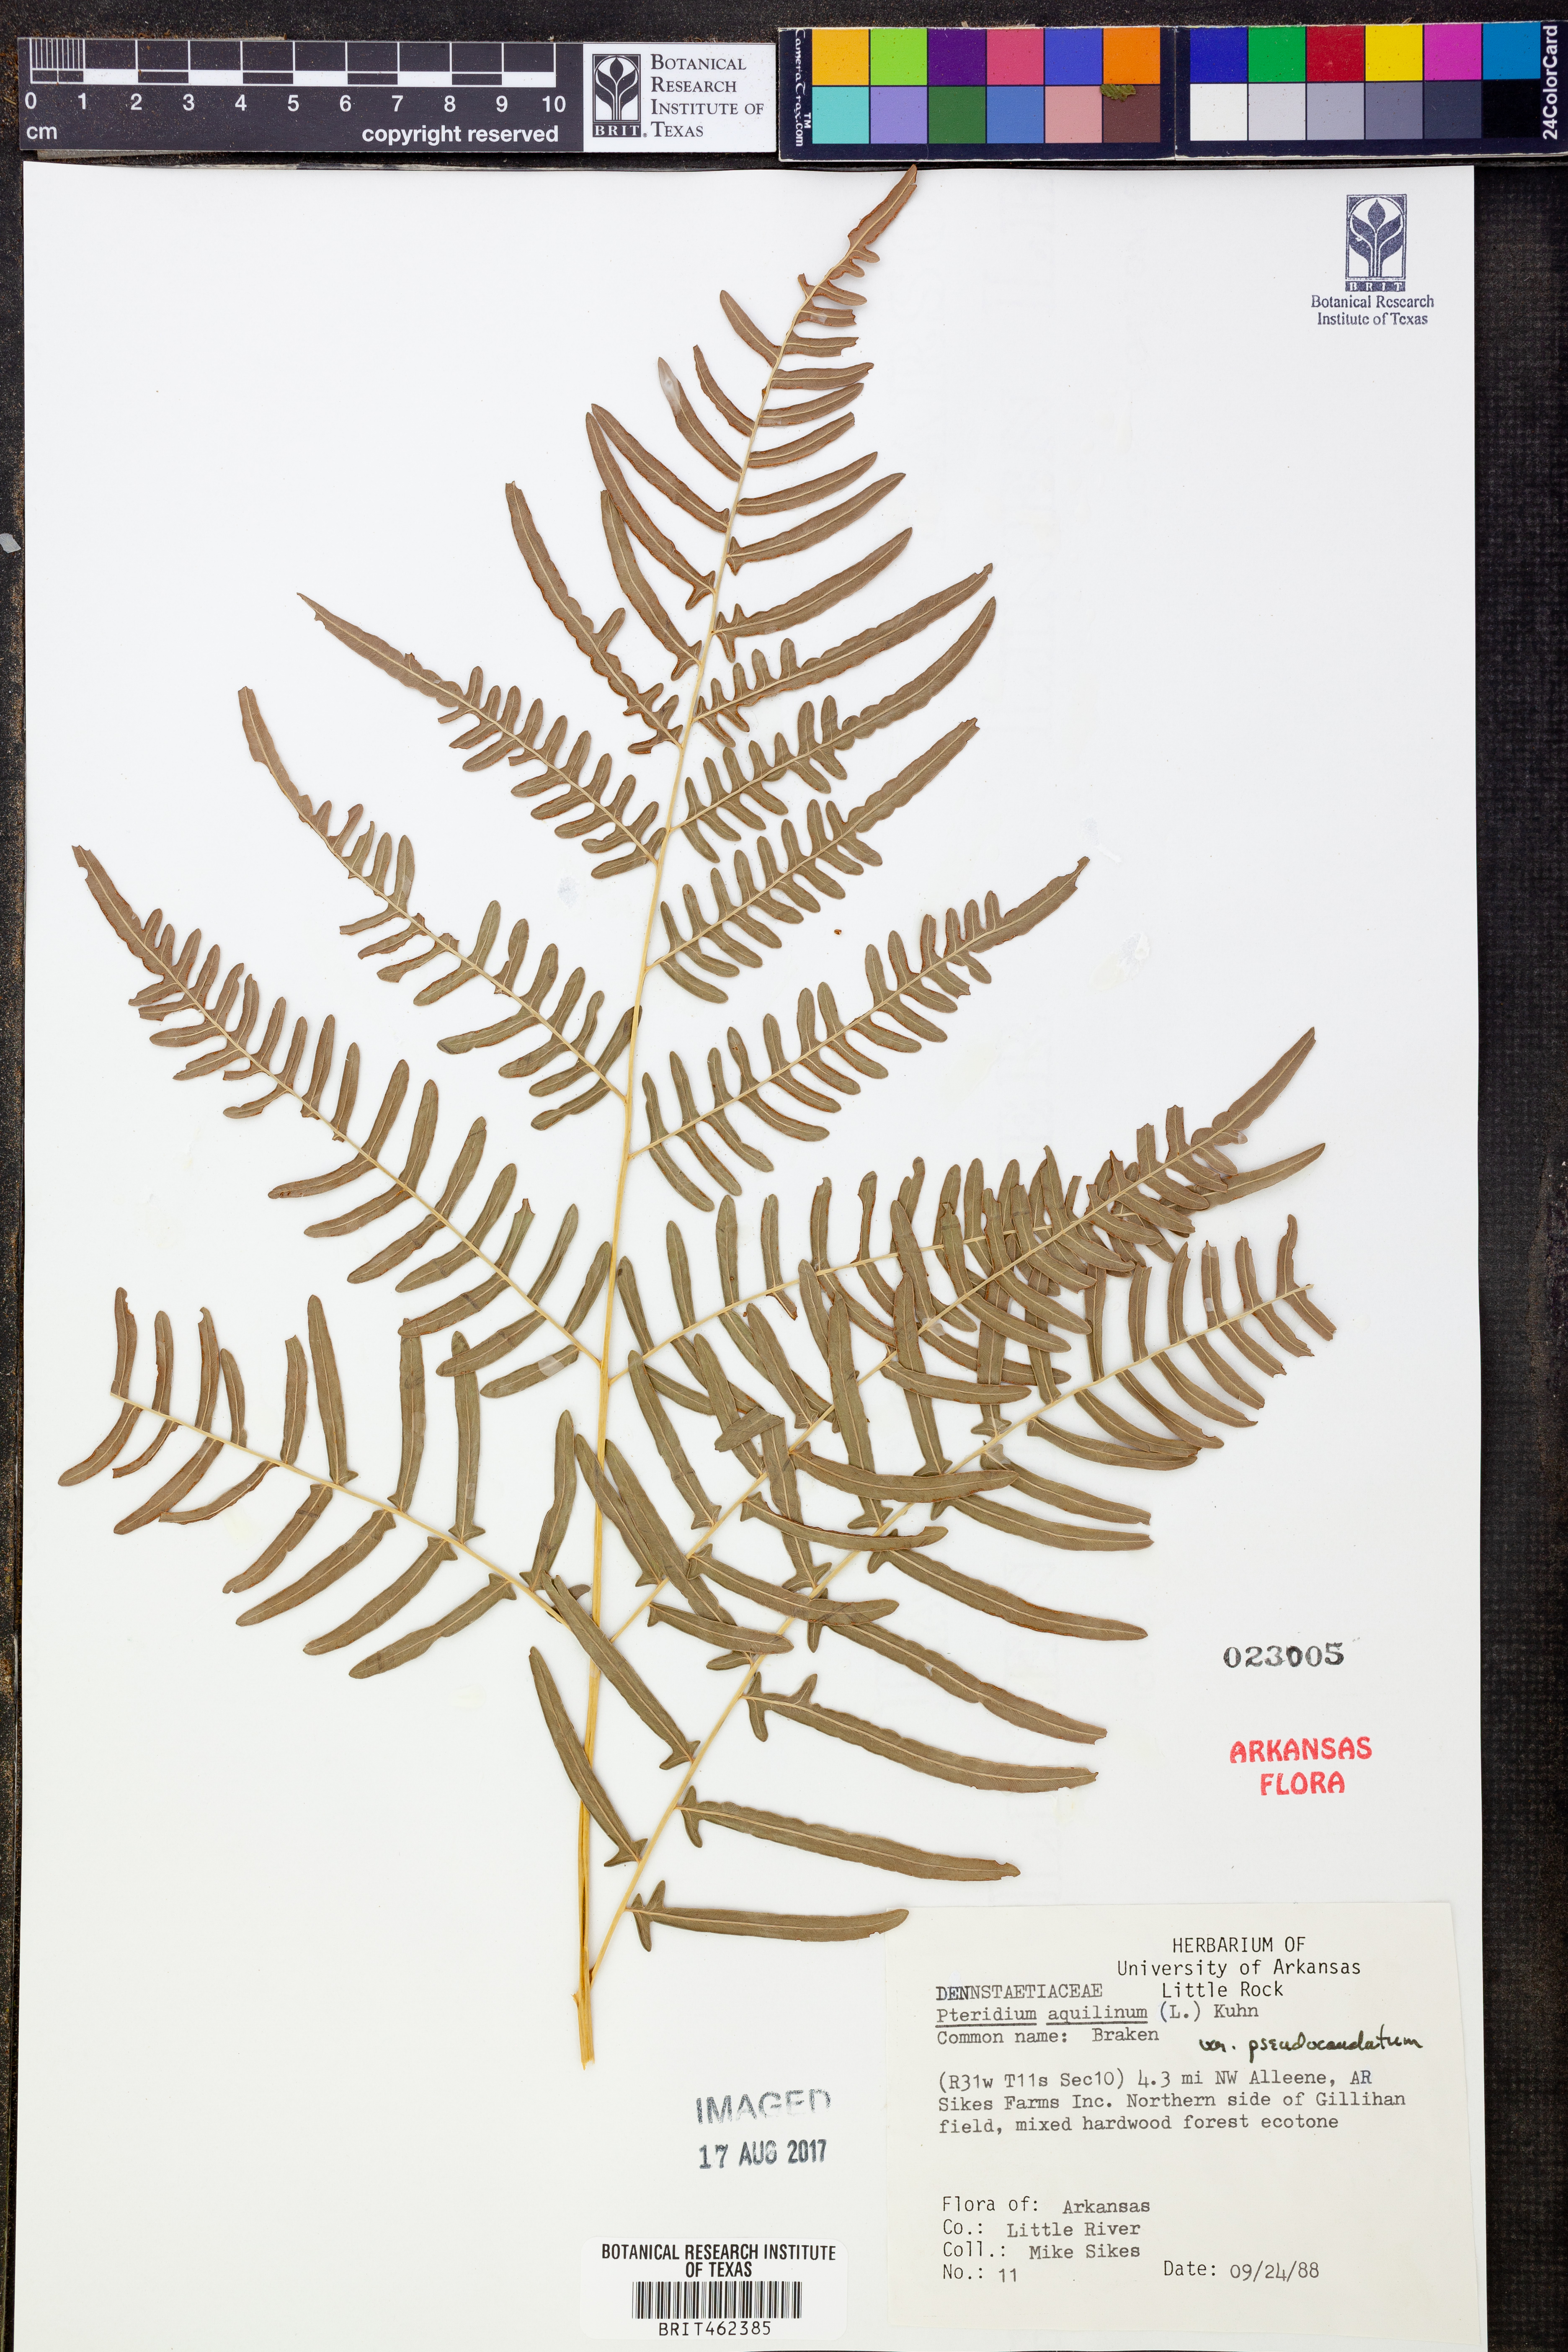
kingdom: Plantae
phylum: Tracheophyta
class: Polypodiopsida
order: Polypodiales
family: Dennstaedtiaceae
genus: Pteridium
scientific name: Pteridium aquilinum
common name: Bracken
